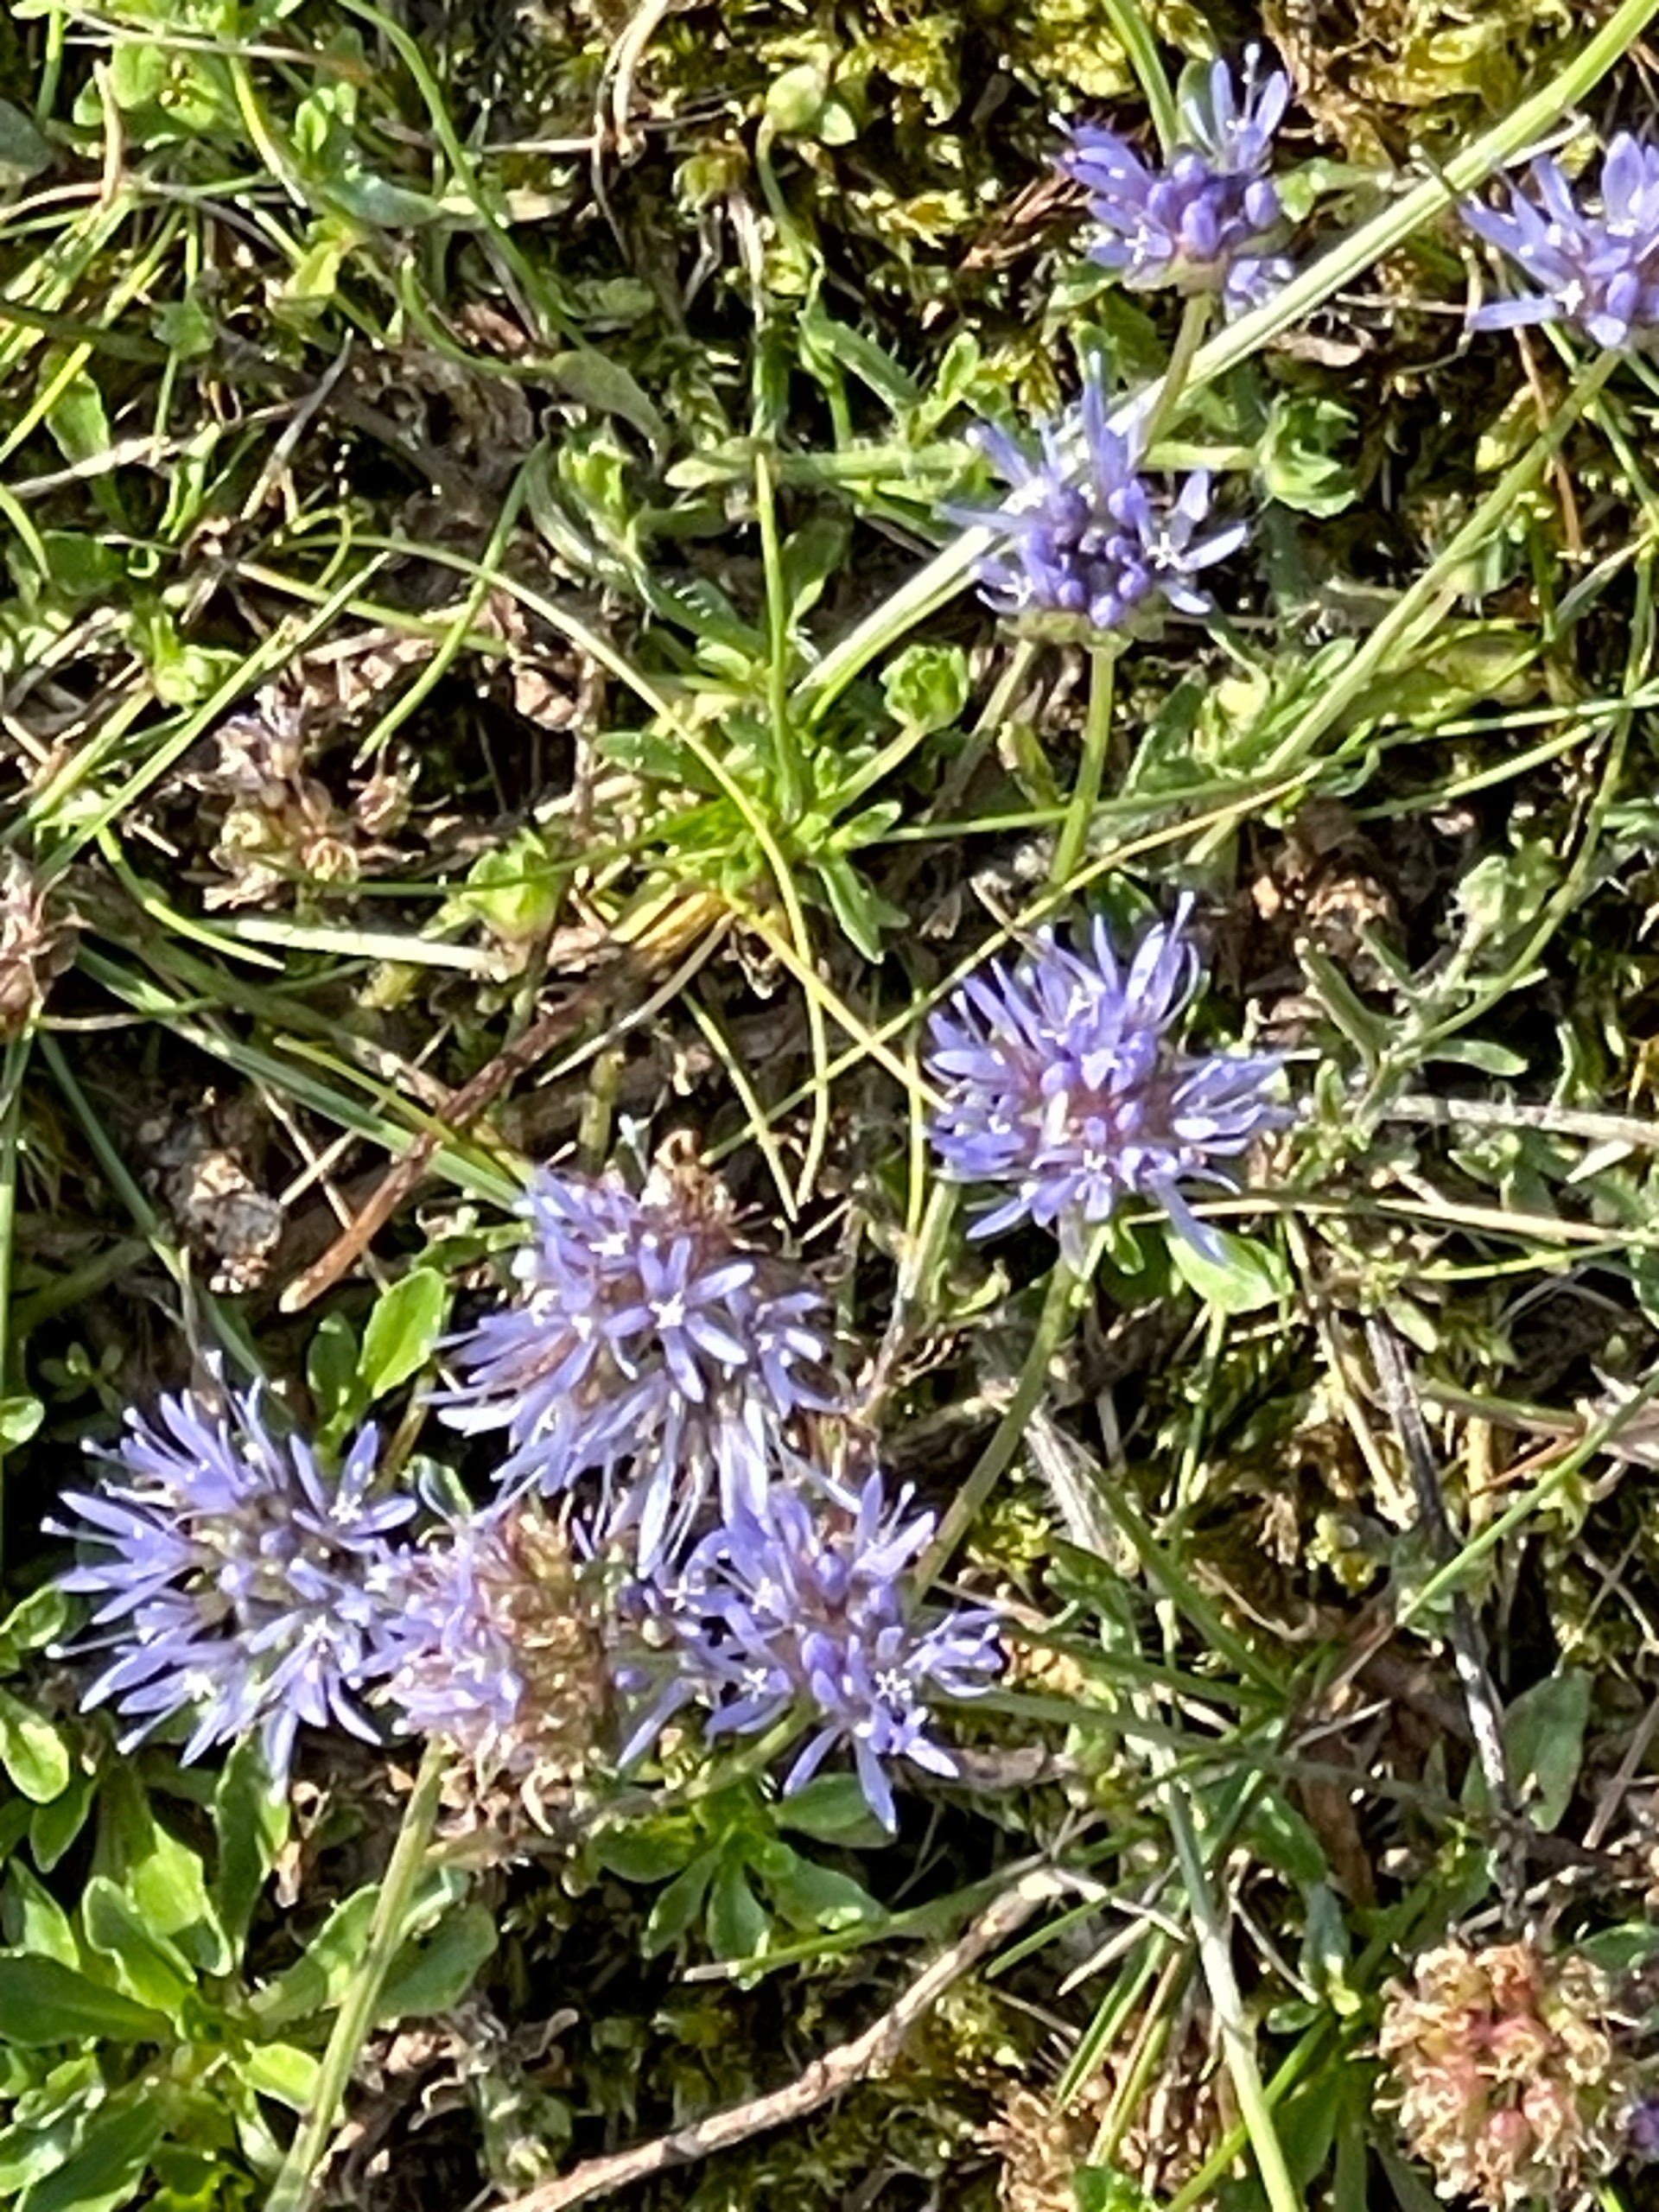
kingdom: Plantae
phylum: Tracheophyta
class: Magnoliopsida
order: Asterales
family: Campanulaceae
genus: Jasione
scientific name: Jasione montana
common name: Blåmunke
